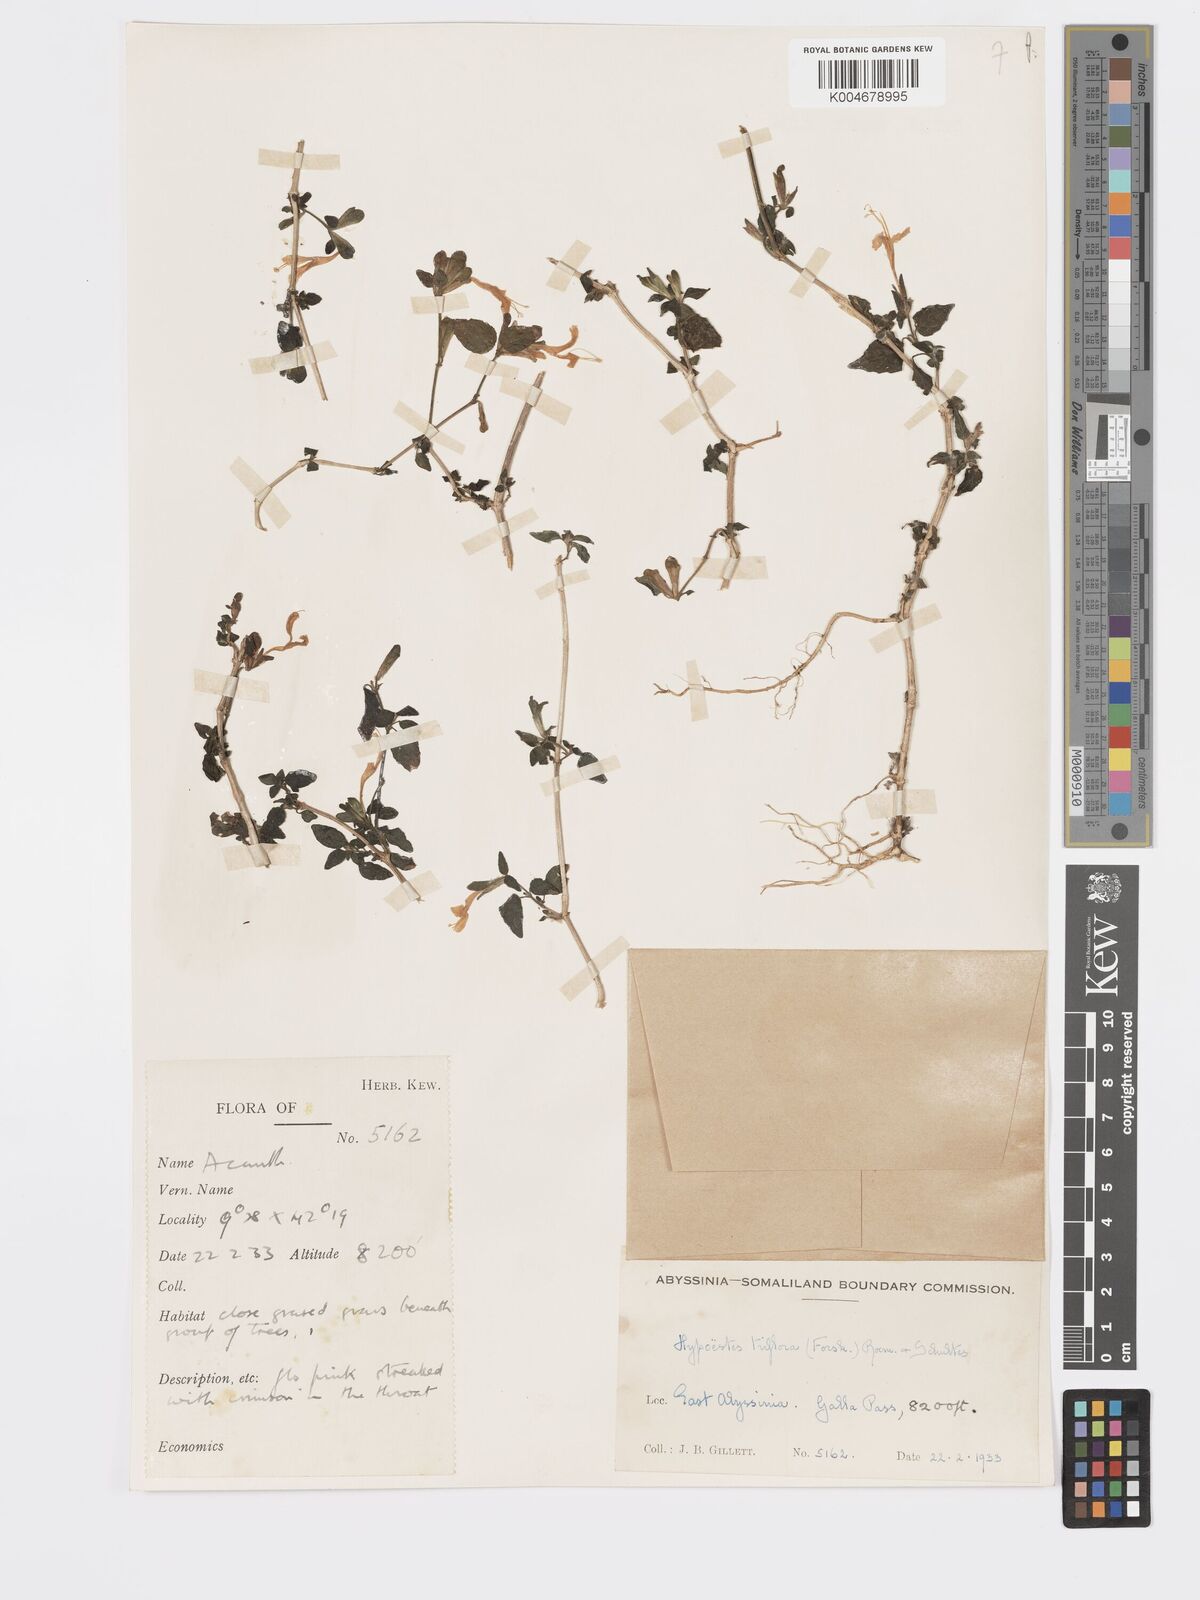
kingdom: Plantae
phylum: Tracheophyta
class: Magnoliopsida
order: Lamiales
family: Acanthaceae
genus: Hypoestes
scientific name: Hypoestes triflora
